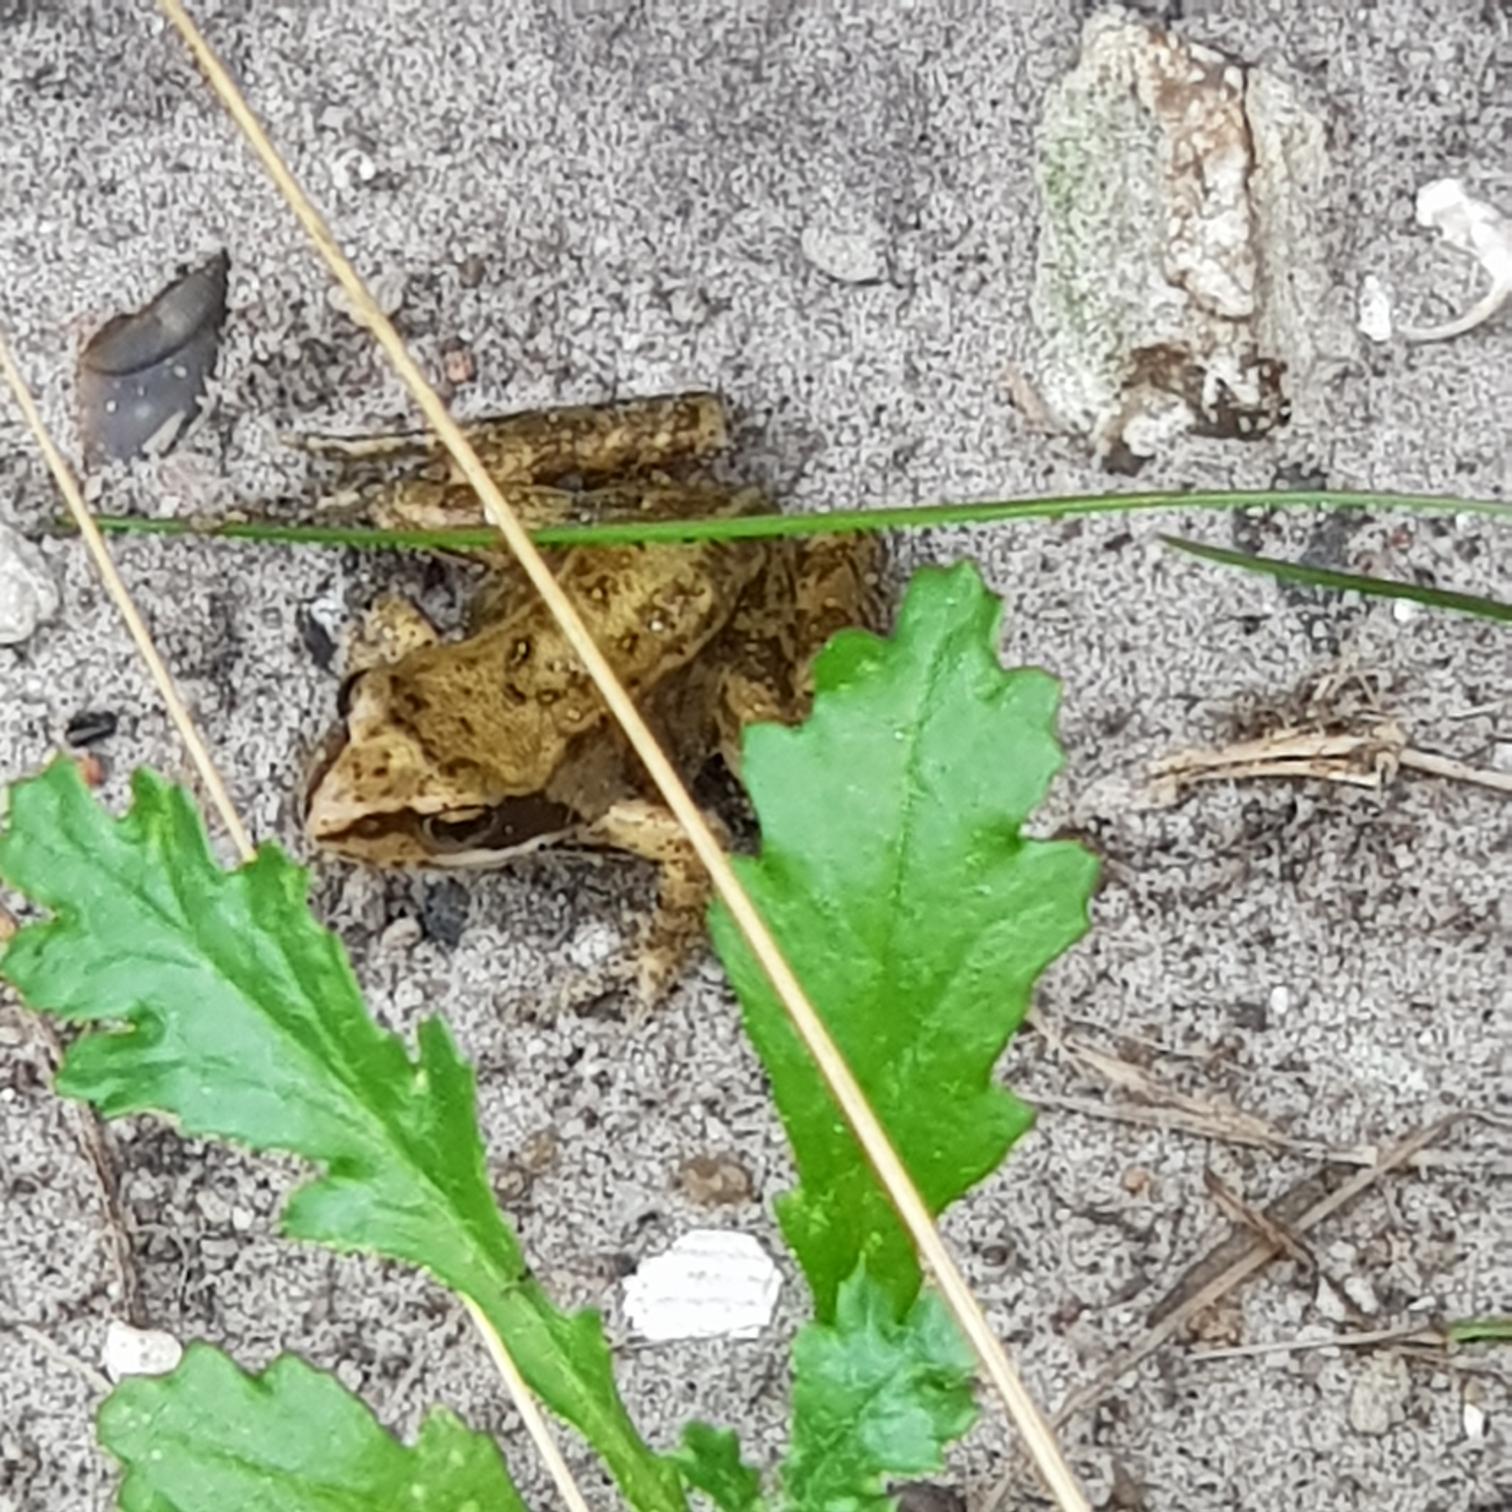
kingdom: Animalia
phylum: Chordata
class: Amphibia
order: Anura
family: Ranidae
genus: Rana
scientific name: Rana temporaria
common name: Butsnudet frø
